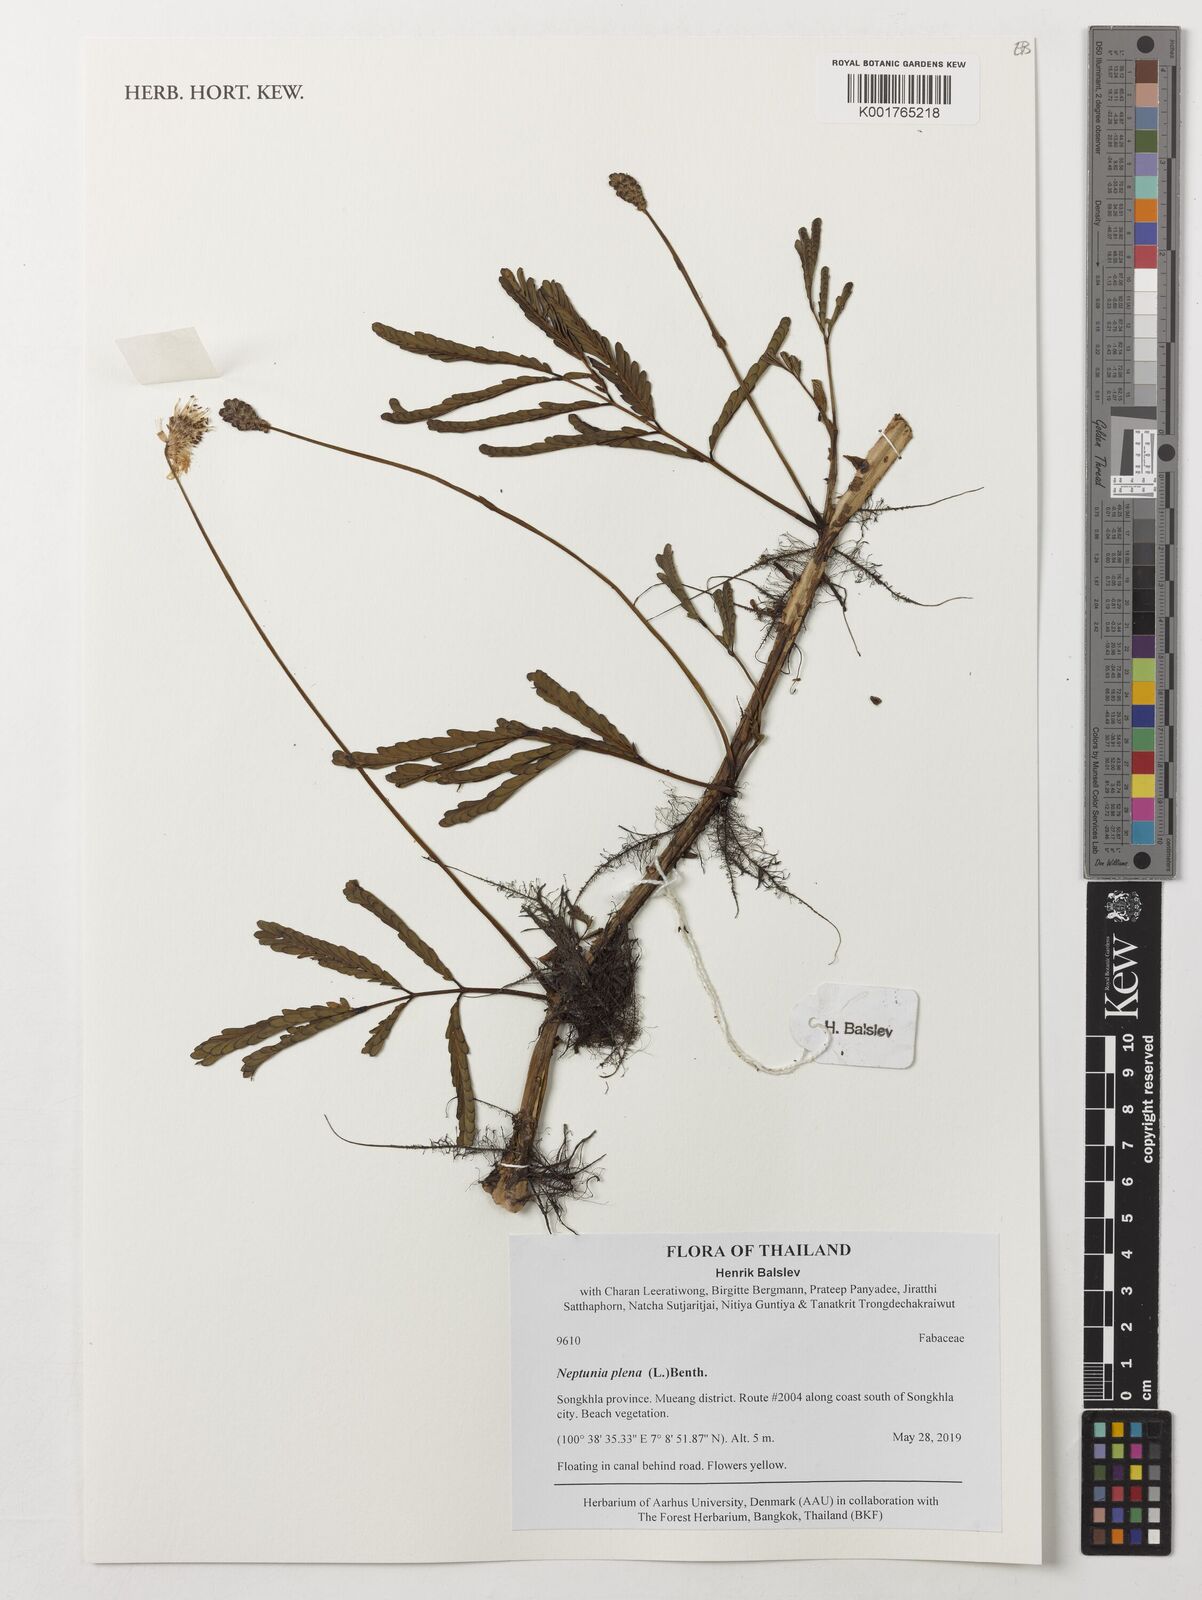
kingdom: Plantae
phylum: Tracheophyta
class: Magnoliopsida
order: Fabales
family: Fabaceae
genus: Neptunia
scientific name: Neptunia plena
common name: Dead and awake
